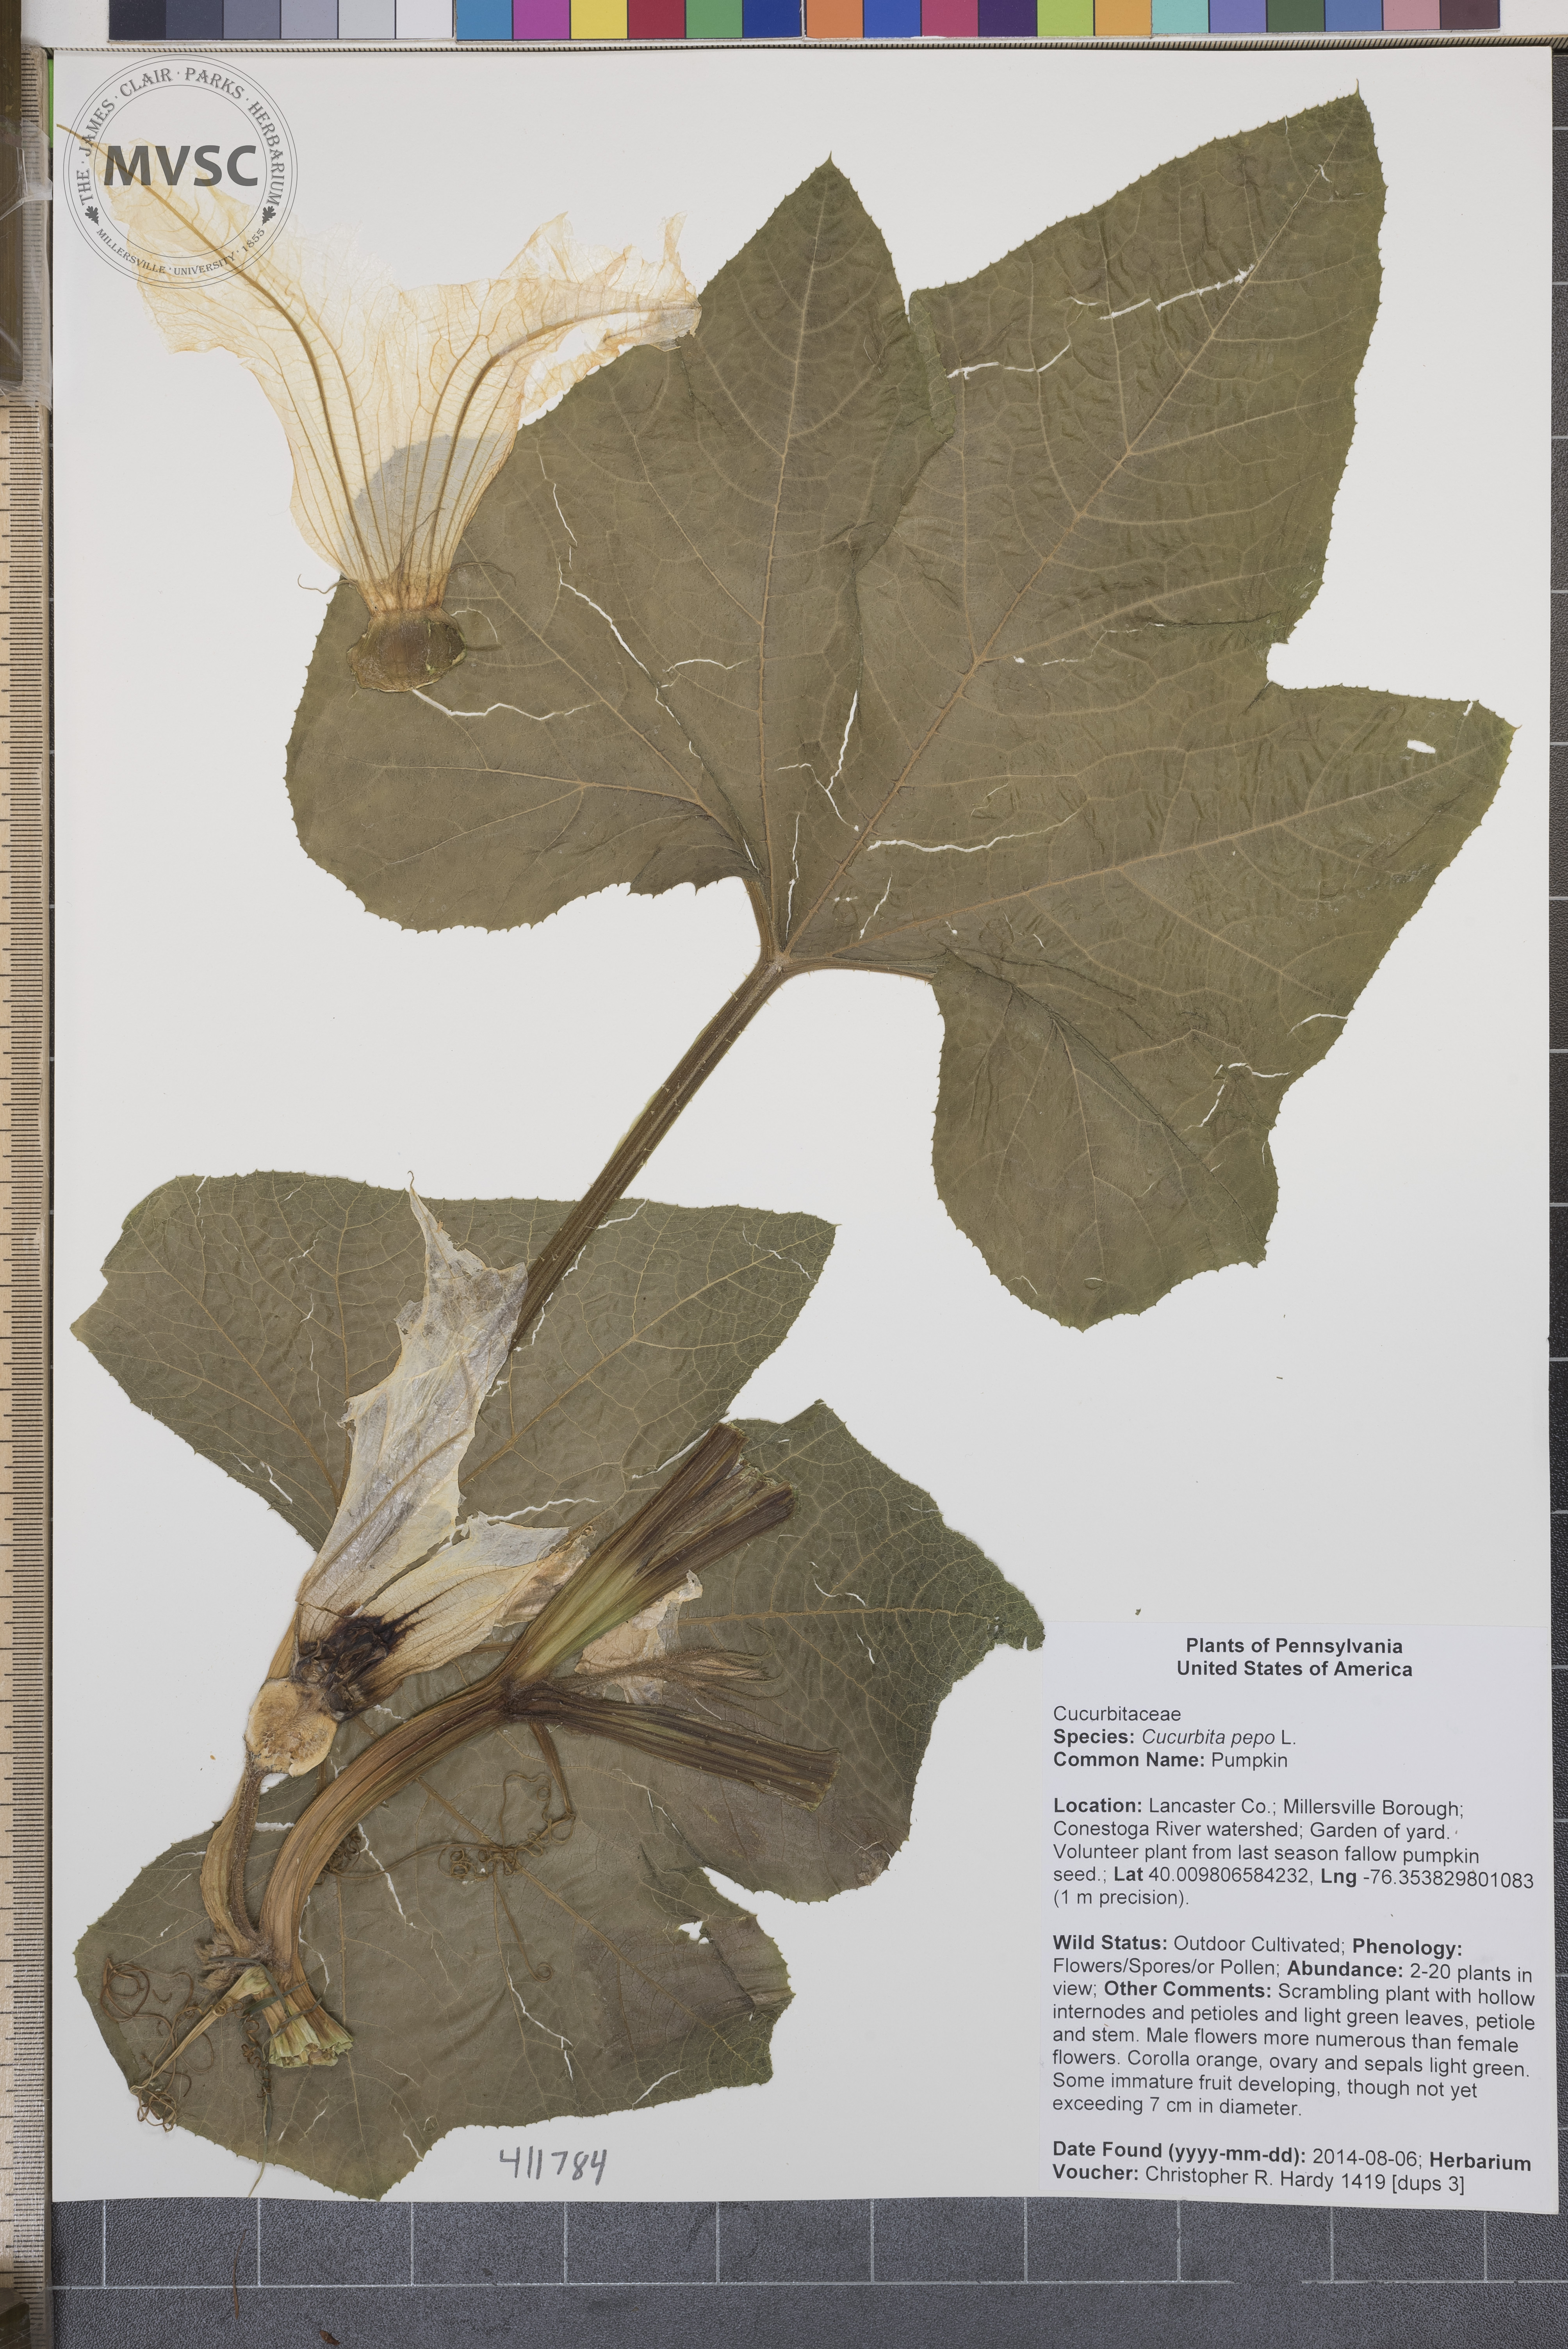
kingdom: Plantae
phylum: Tracheophyta
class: Magnoliopsida
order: Cucurbitales
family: Cucurbitaceae
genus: Cucurbita
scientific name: Cucurbita pepo
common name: Pumpkin
